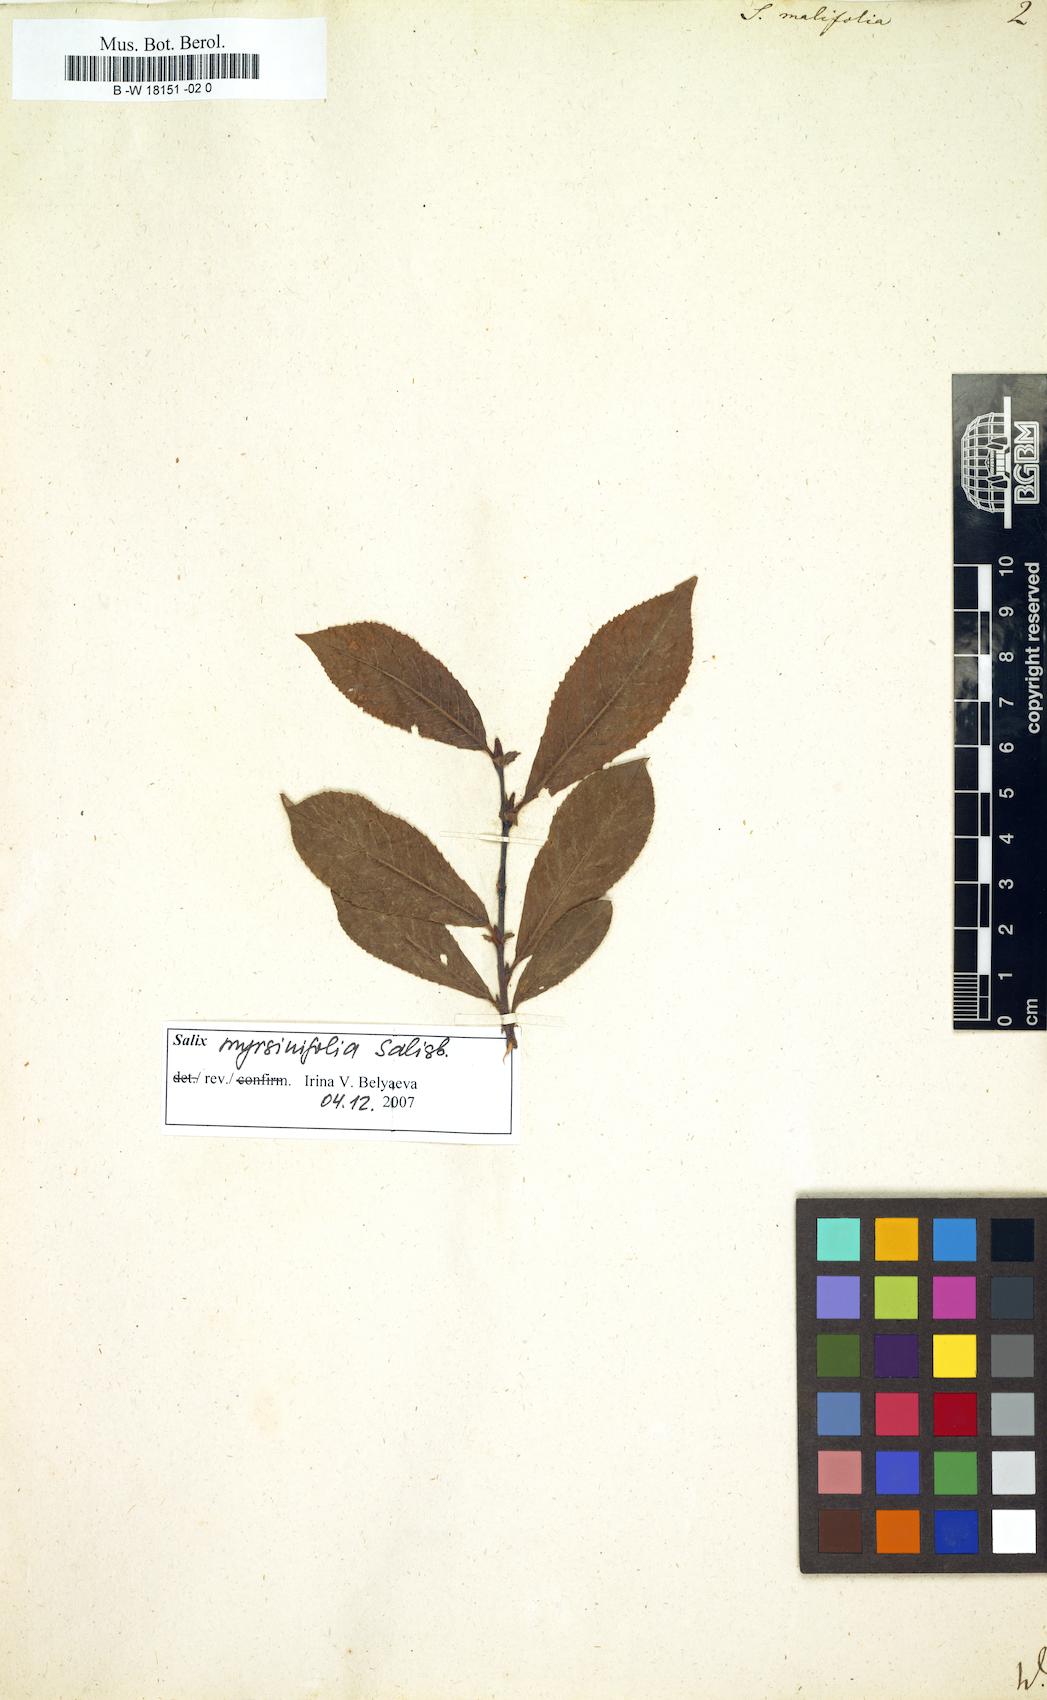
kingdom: Plantae
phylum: Tracheophyta
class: Magnoliopsida
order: Malpighiales
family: Salicaceae
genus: Salix
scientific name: Salix
